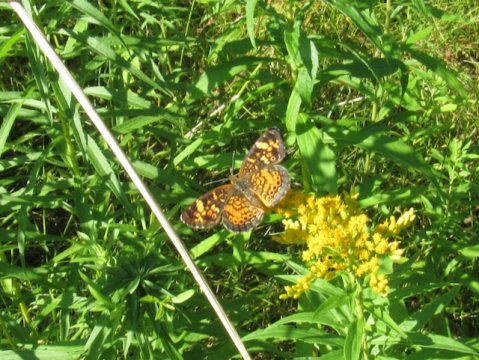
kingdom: Animalia
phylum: Arthropoda
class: Insecta
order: Lepidoptera
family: Nymphalidae
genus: Phyciodes
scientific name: Phyciodes tharos
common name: Pearl Crescent
